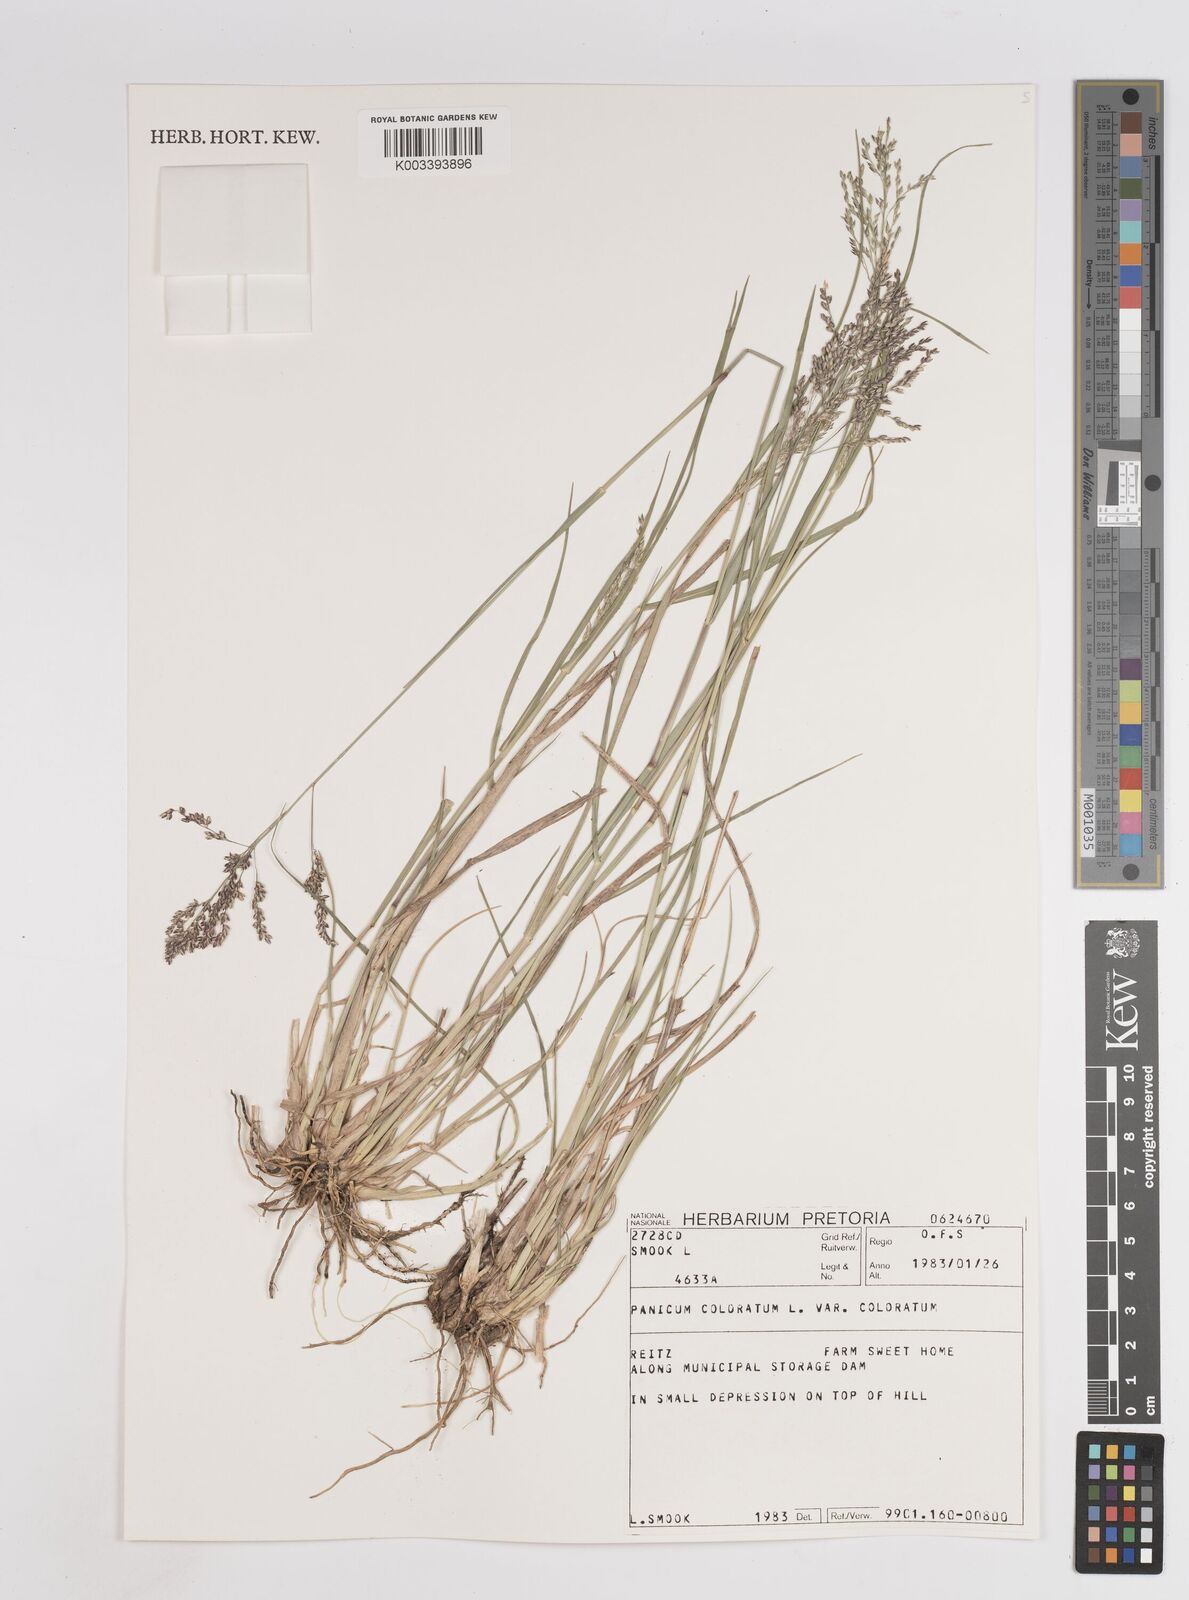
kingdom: Plantae
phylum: Tracheophyta
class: Liliopsida
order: Poales
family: Poaceae
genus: Panicum
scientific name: Panicum stapfianum
